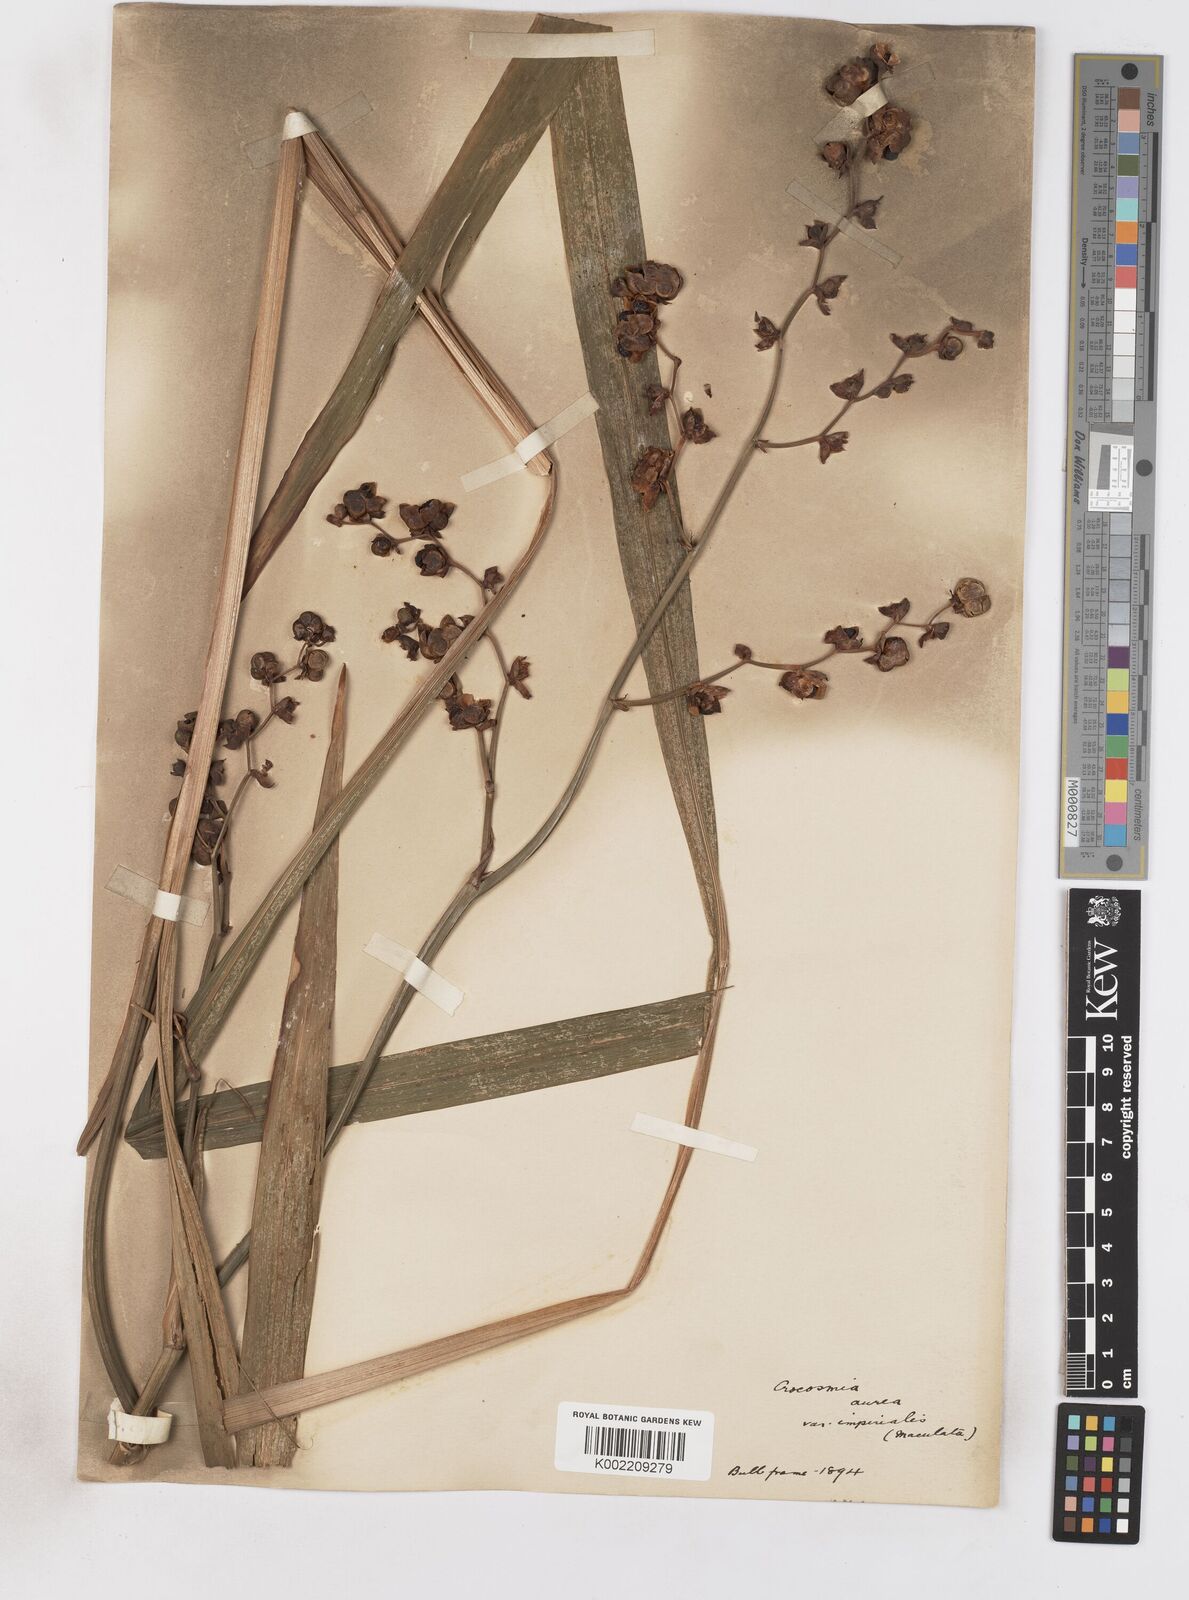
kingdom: Plantae
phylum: Tracheophyta
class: Liliopsida
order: Asparagales
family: Iridaceae
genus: Crocosmia
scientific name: Crocosmia aurea
